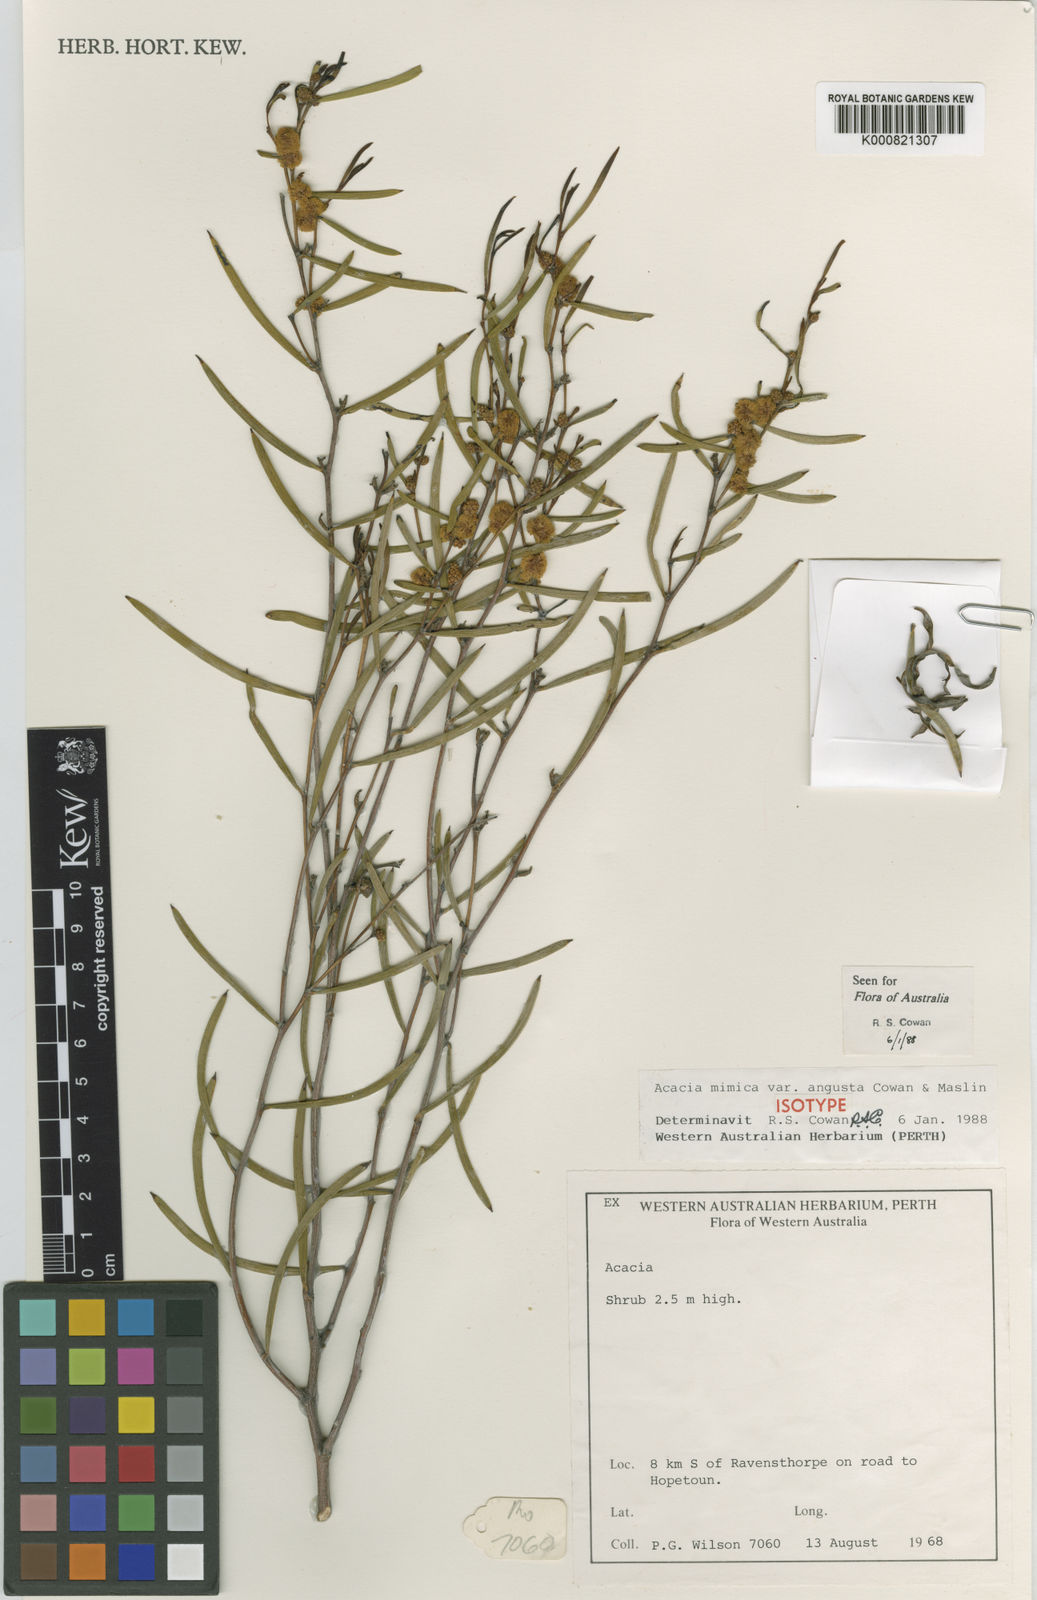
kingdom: Plantae
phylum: Tracheophyta
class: Magnoliopsida
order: Fabales
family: Fabaceae
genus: Acacia
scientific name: Acacia mimica
